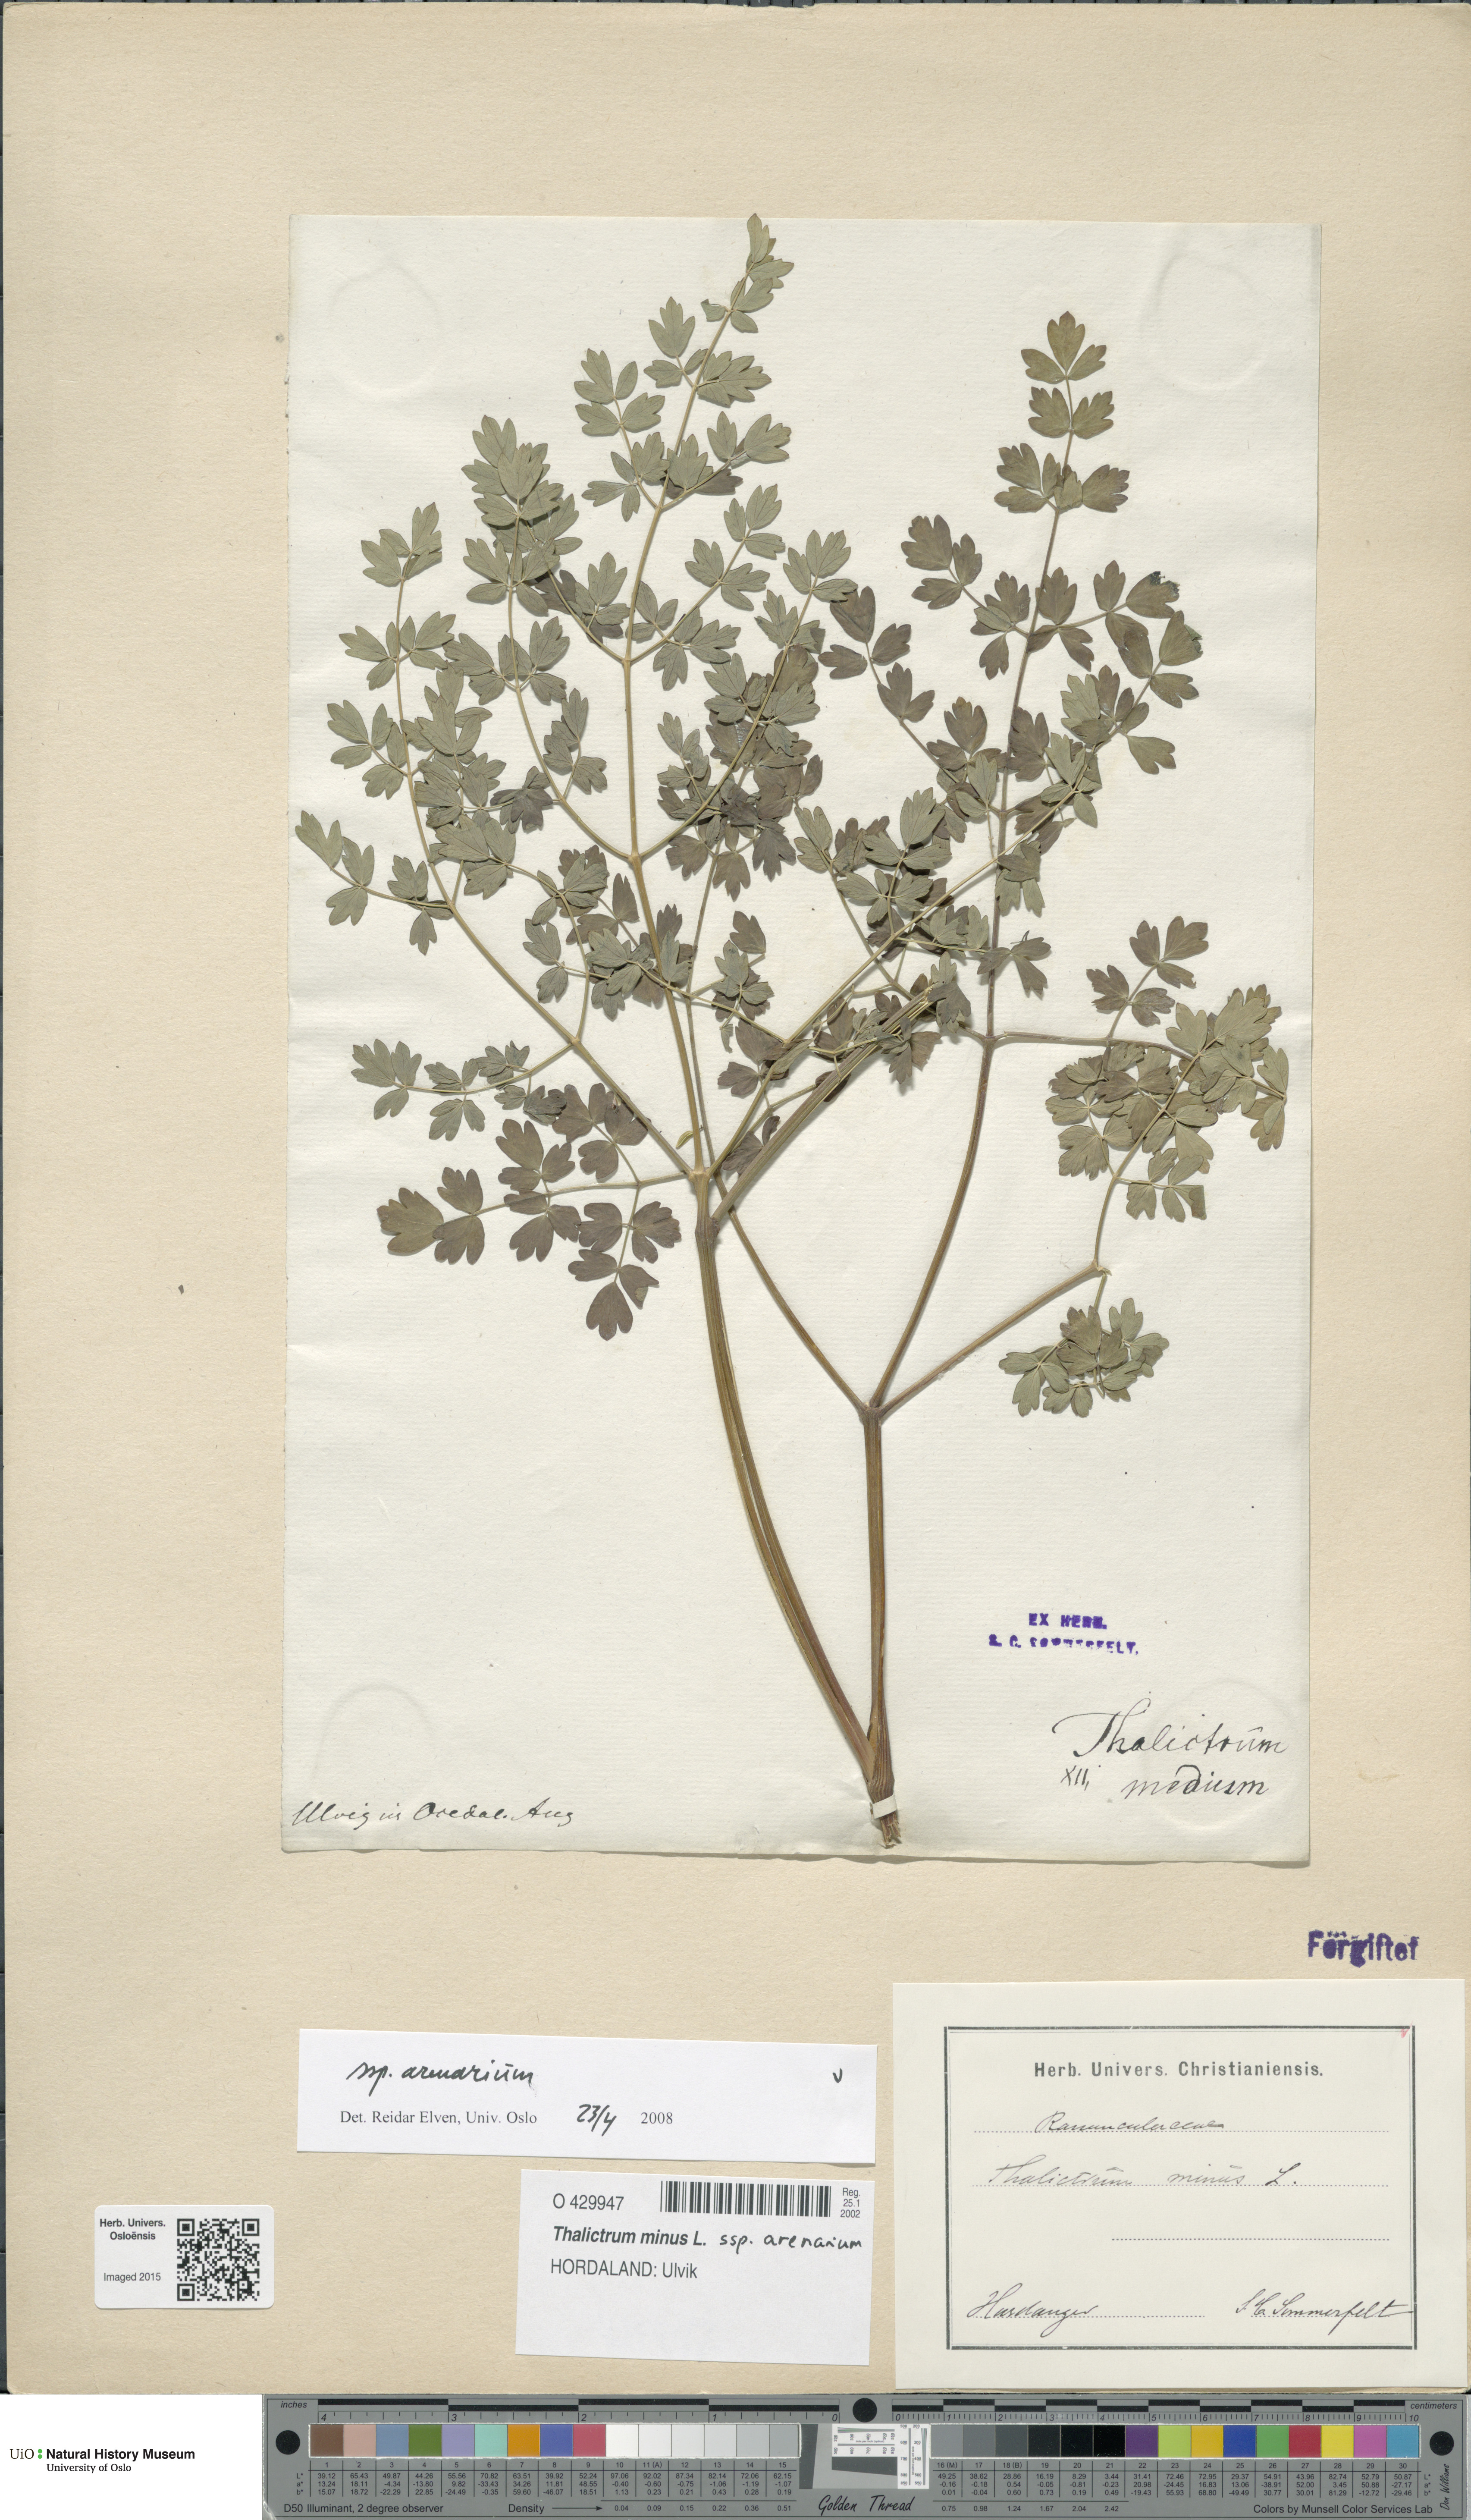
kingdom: Plantae
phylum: Tracheophyta
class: Magnoliopsida
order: Ranunculales
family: Ranunculaceae
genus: Thalictrum
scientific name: Thalictrum minus
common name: Lesser meadow-rue
